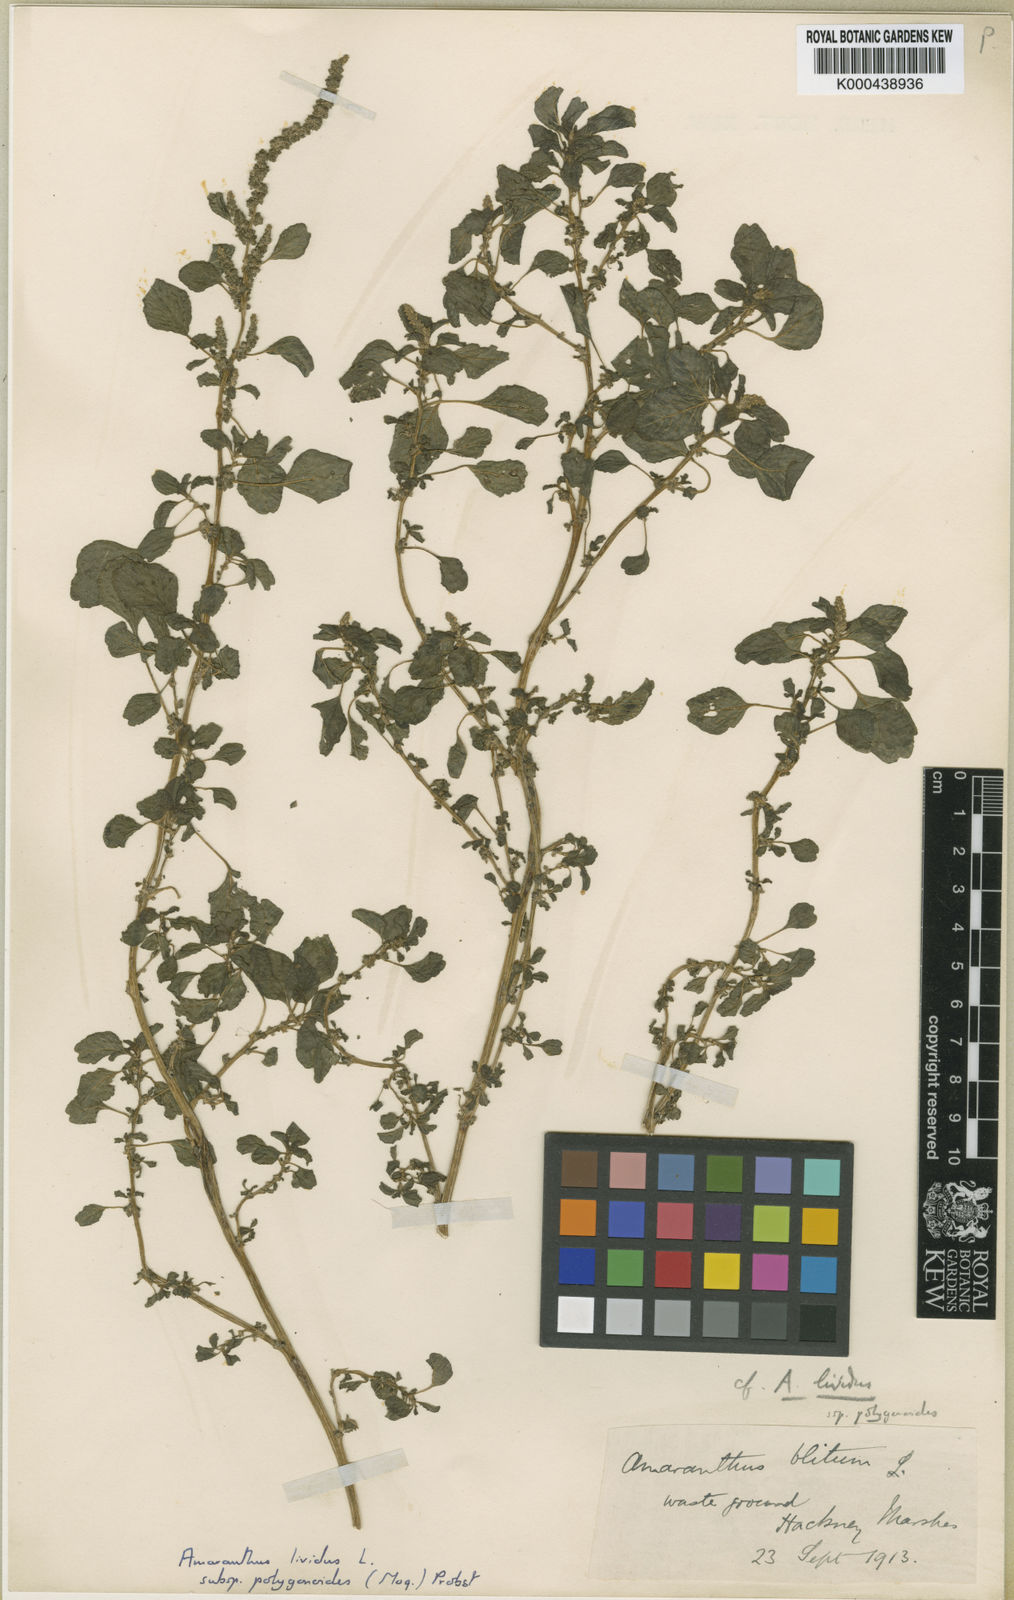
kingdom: Plantae
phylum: Tracheophyta
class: Magnoliopsida
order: Caryophyllales
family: Amaranthaceae
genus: Amaranthus
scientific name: Amaranthus emarginatus
